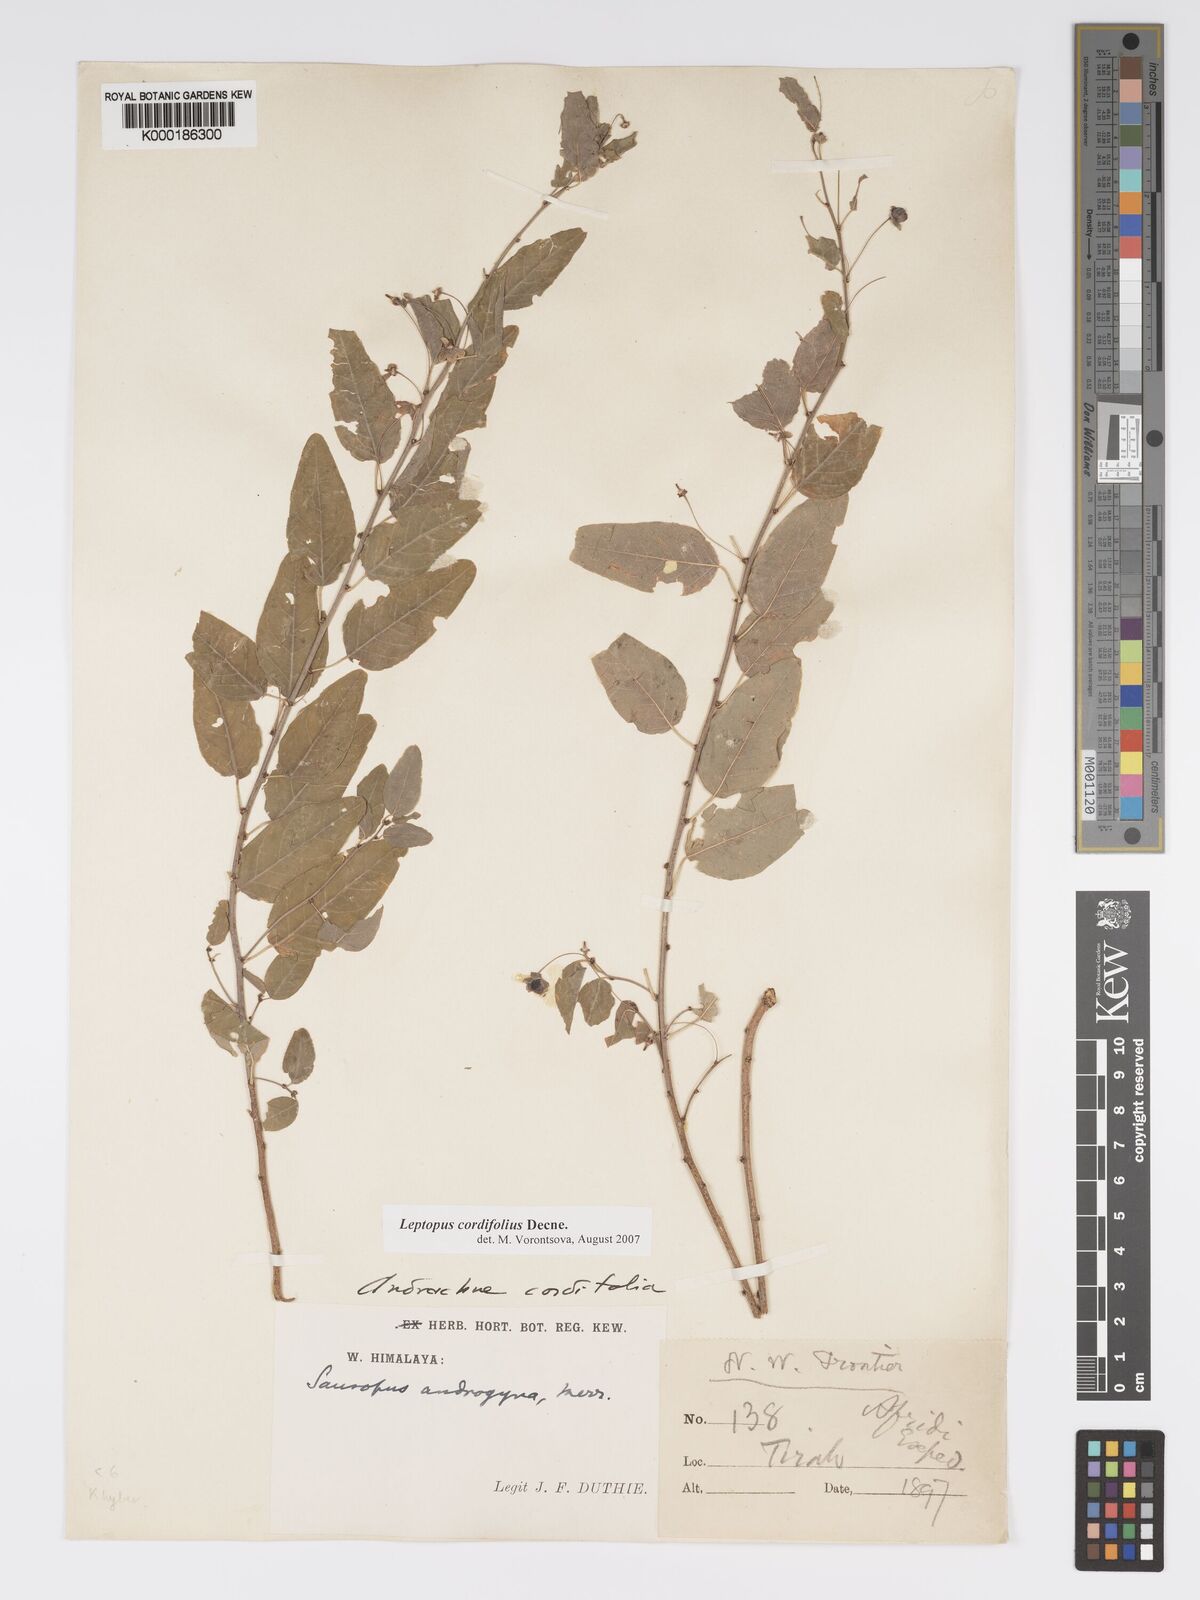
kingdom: Plantae
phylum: Tracheophyta
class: Magnoliopsida
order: Malpighiales
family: Phyllanthaceae
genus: Leptopus
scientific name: Leptopus cordifolius
